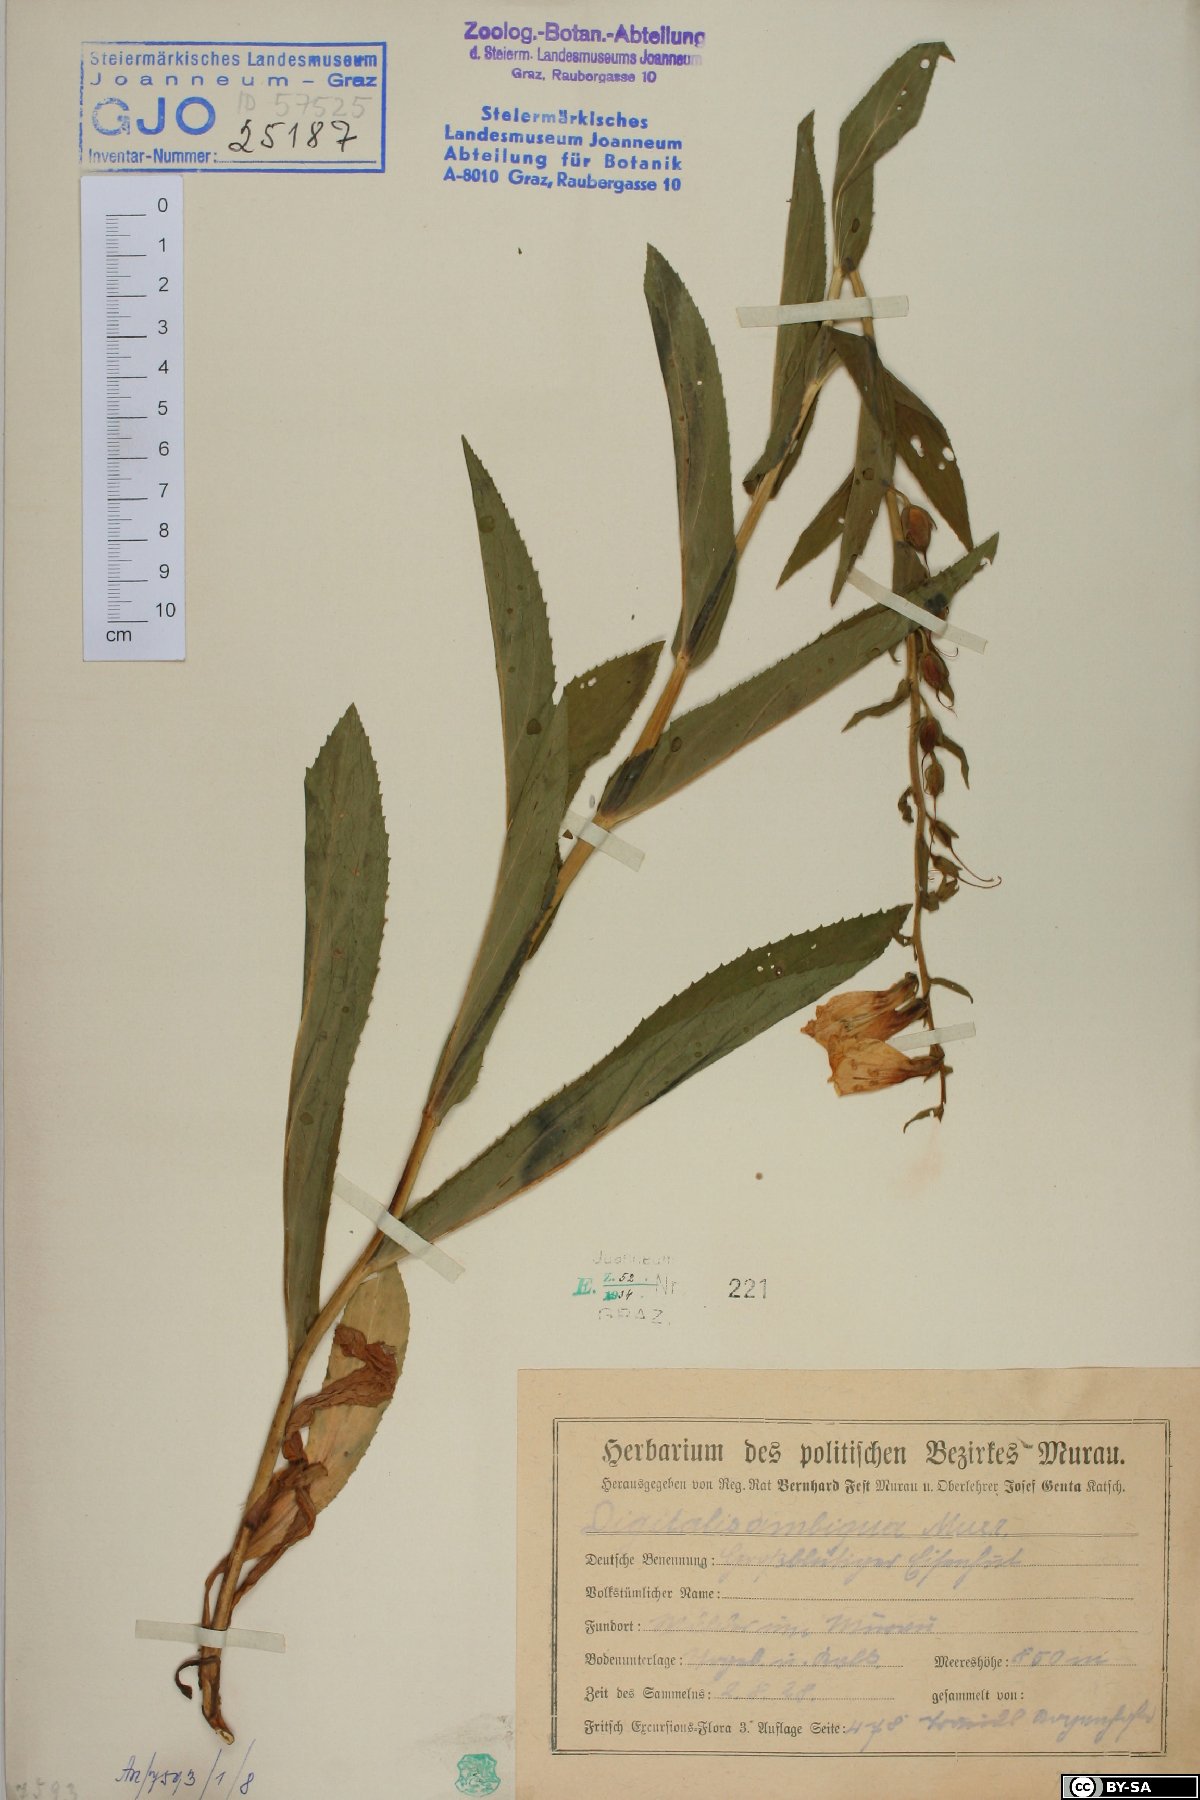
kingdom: Plantae
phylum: Tracheophyta
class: Magnoliopsida
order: Lamiales
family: Plantaginaceae
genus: Digitalis
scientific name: Digitalis grandiflora
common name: Yellow foxglove
